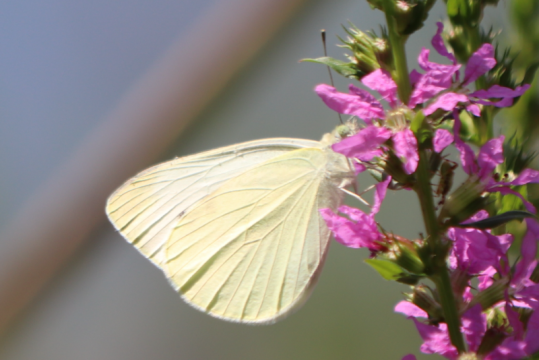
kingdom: Animalia
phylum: Arthropoda
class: Insecta
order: Lepidoptera
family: Pieridae
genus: Pieris
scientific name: Pieris rapae
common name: Cabbage White
